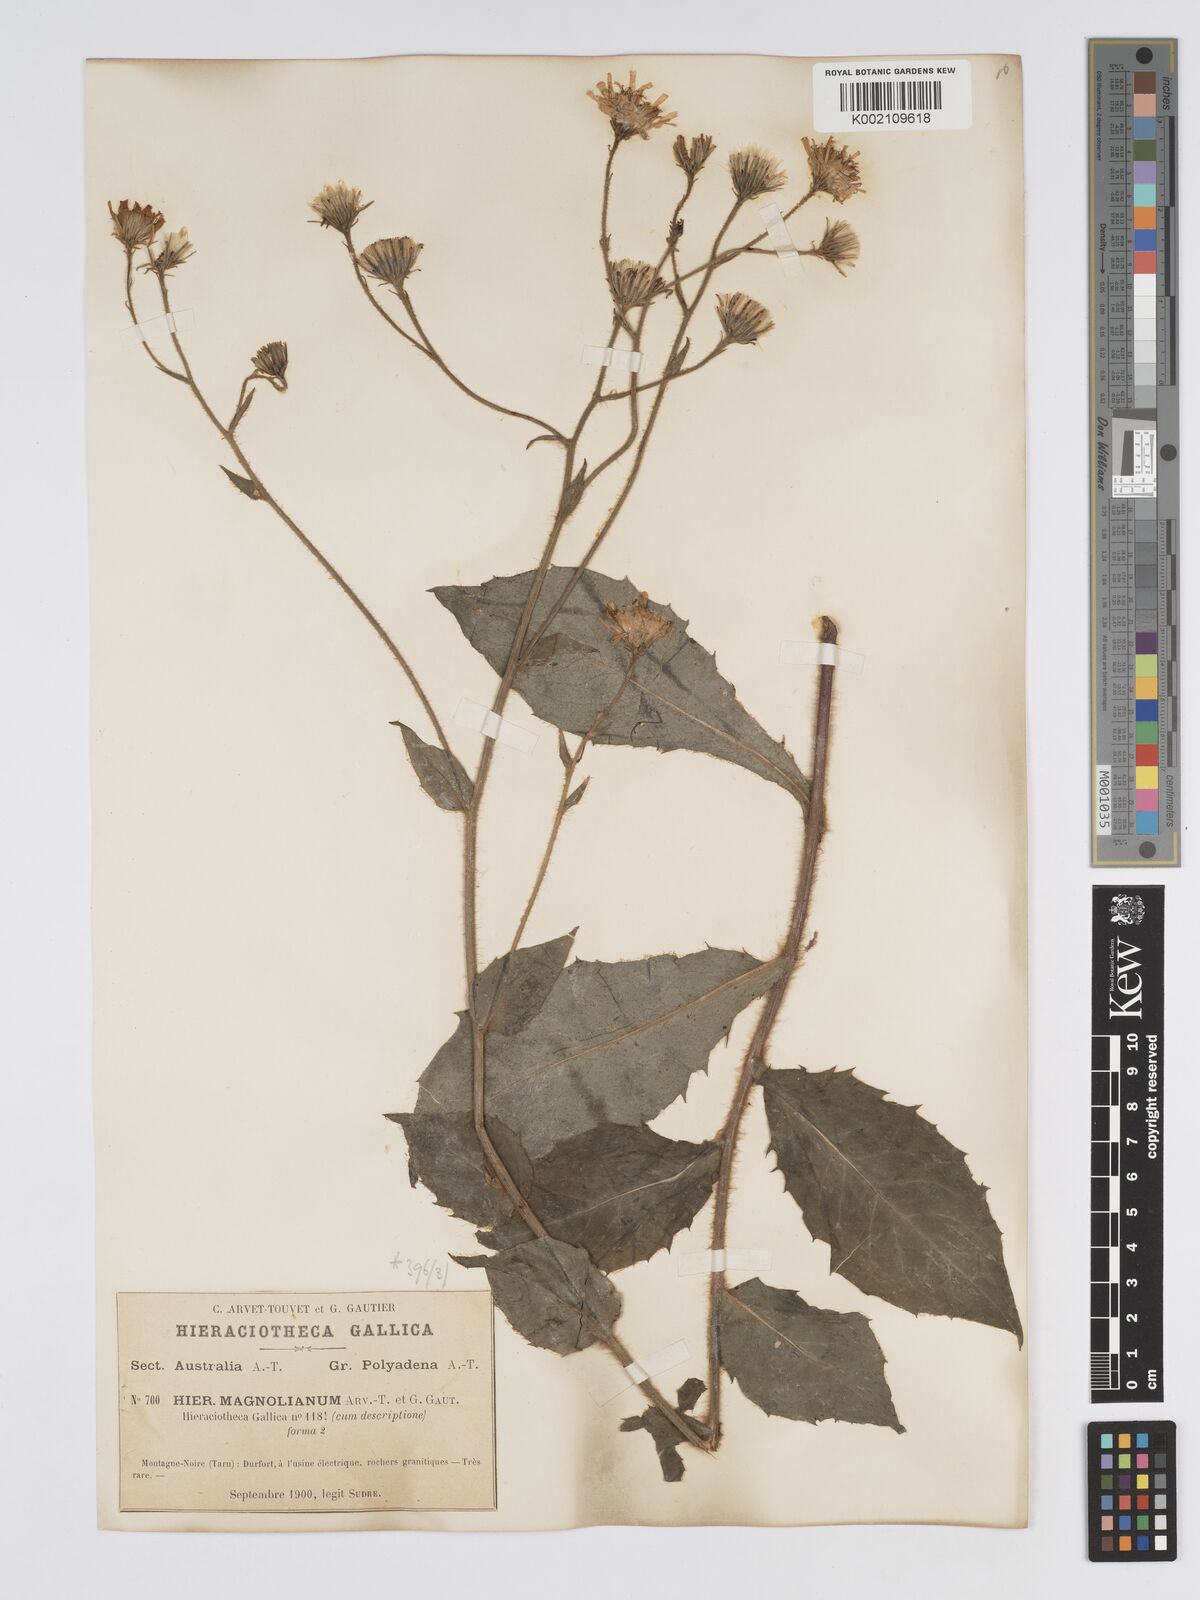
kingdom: Plantae
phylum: Tracheophyta
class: Magnoliopsida
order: Asterales
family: Asteraceae
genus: Hieracium
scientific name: Hieracium compositum
